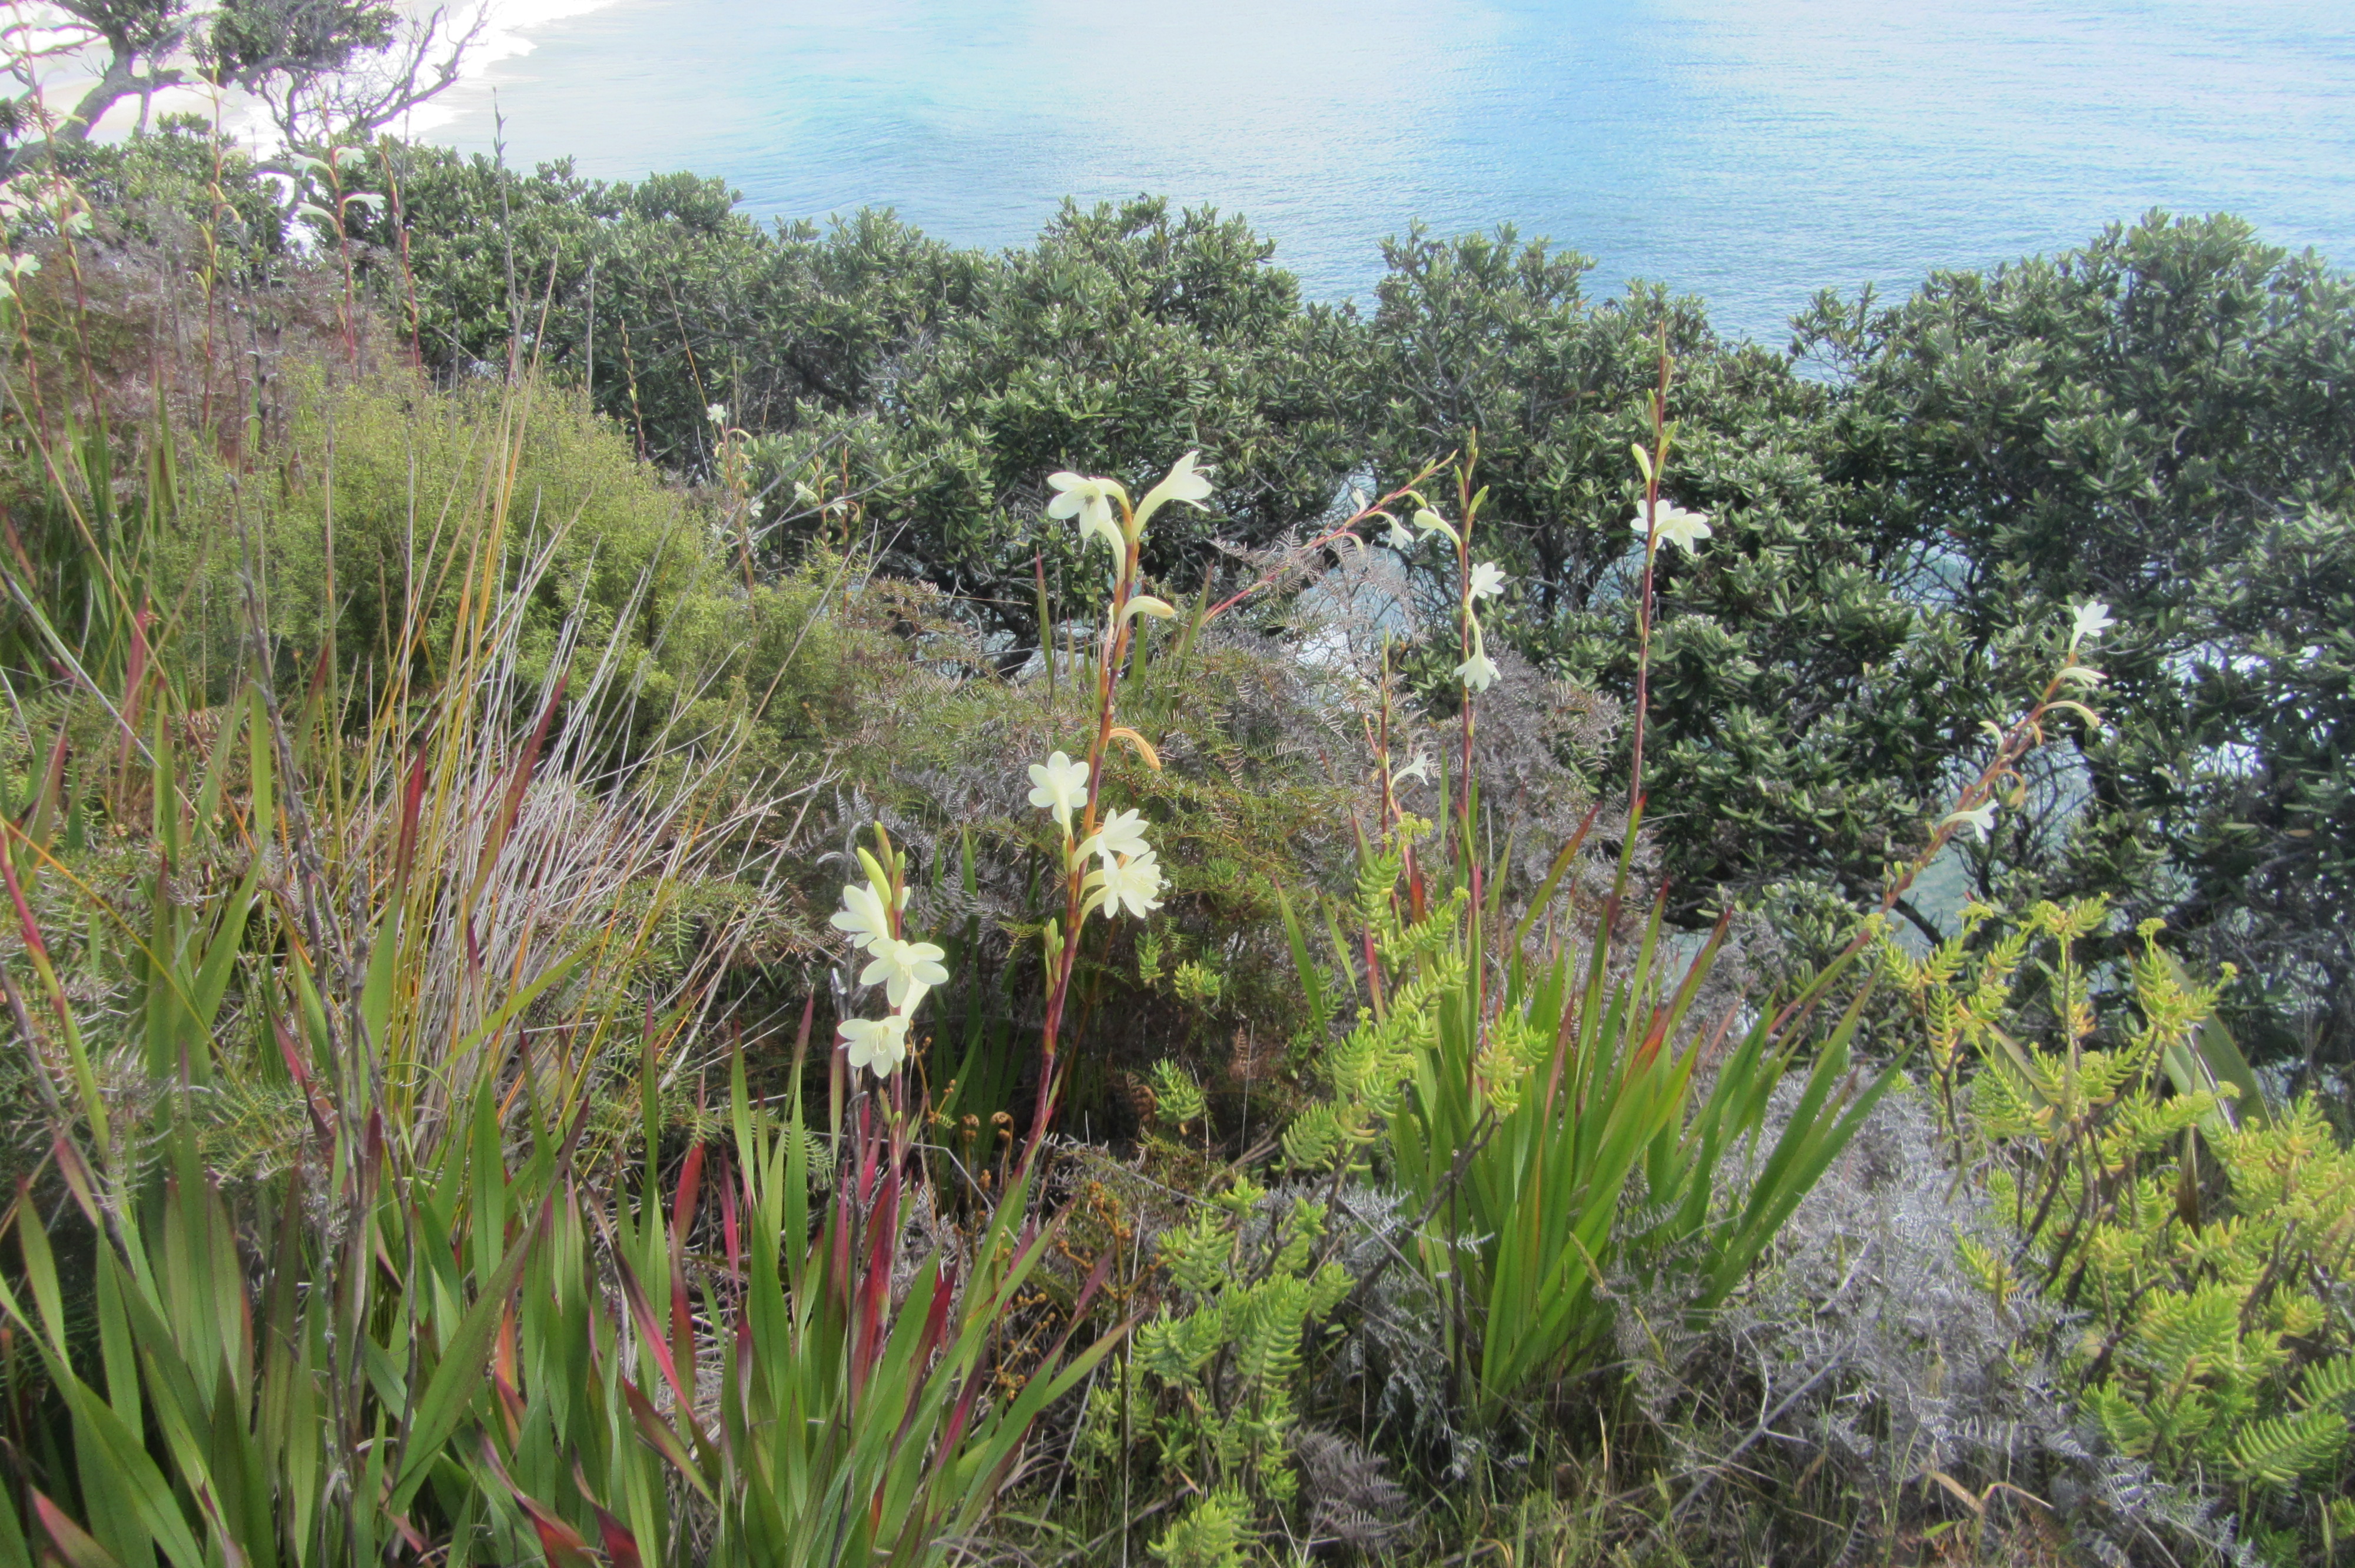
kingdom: Plantae
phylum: Tracheophyta
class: Liliopsida
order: Asparagales
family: Iridaceae
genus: Watsonia
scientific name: Watsonia meriana
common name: Bulbil bugle-lily
